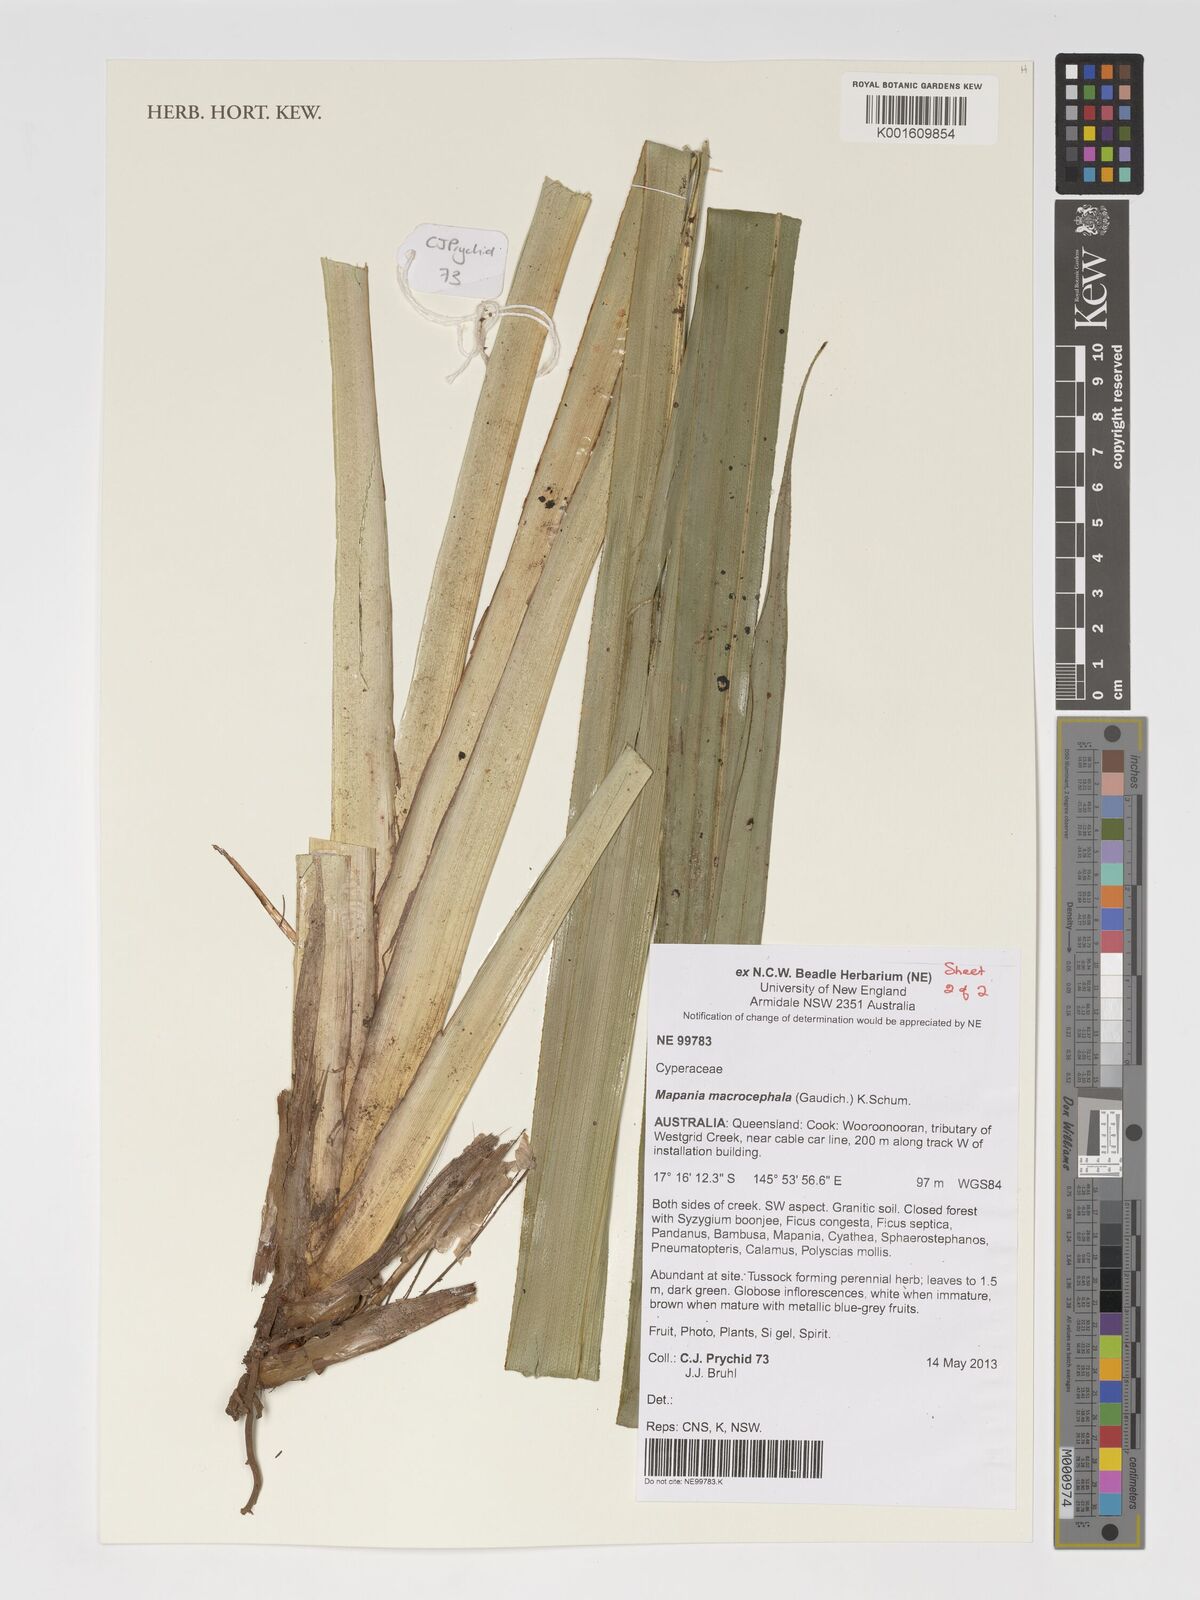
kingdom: Plantae
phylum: Tracheophyta
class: Liliopsida
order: Poales
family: Cyperaceae
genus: Mapania
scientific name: Mapania macrocephala
